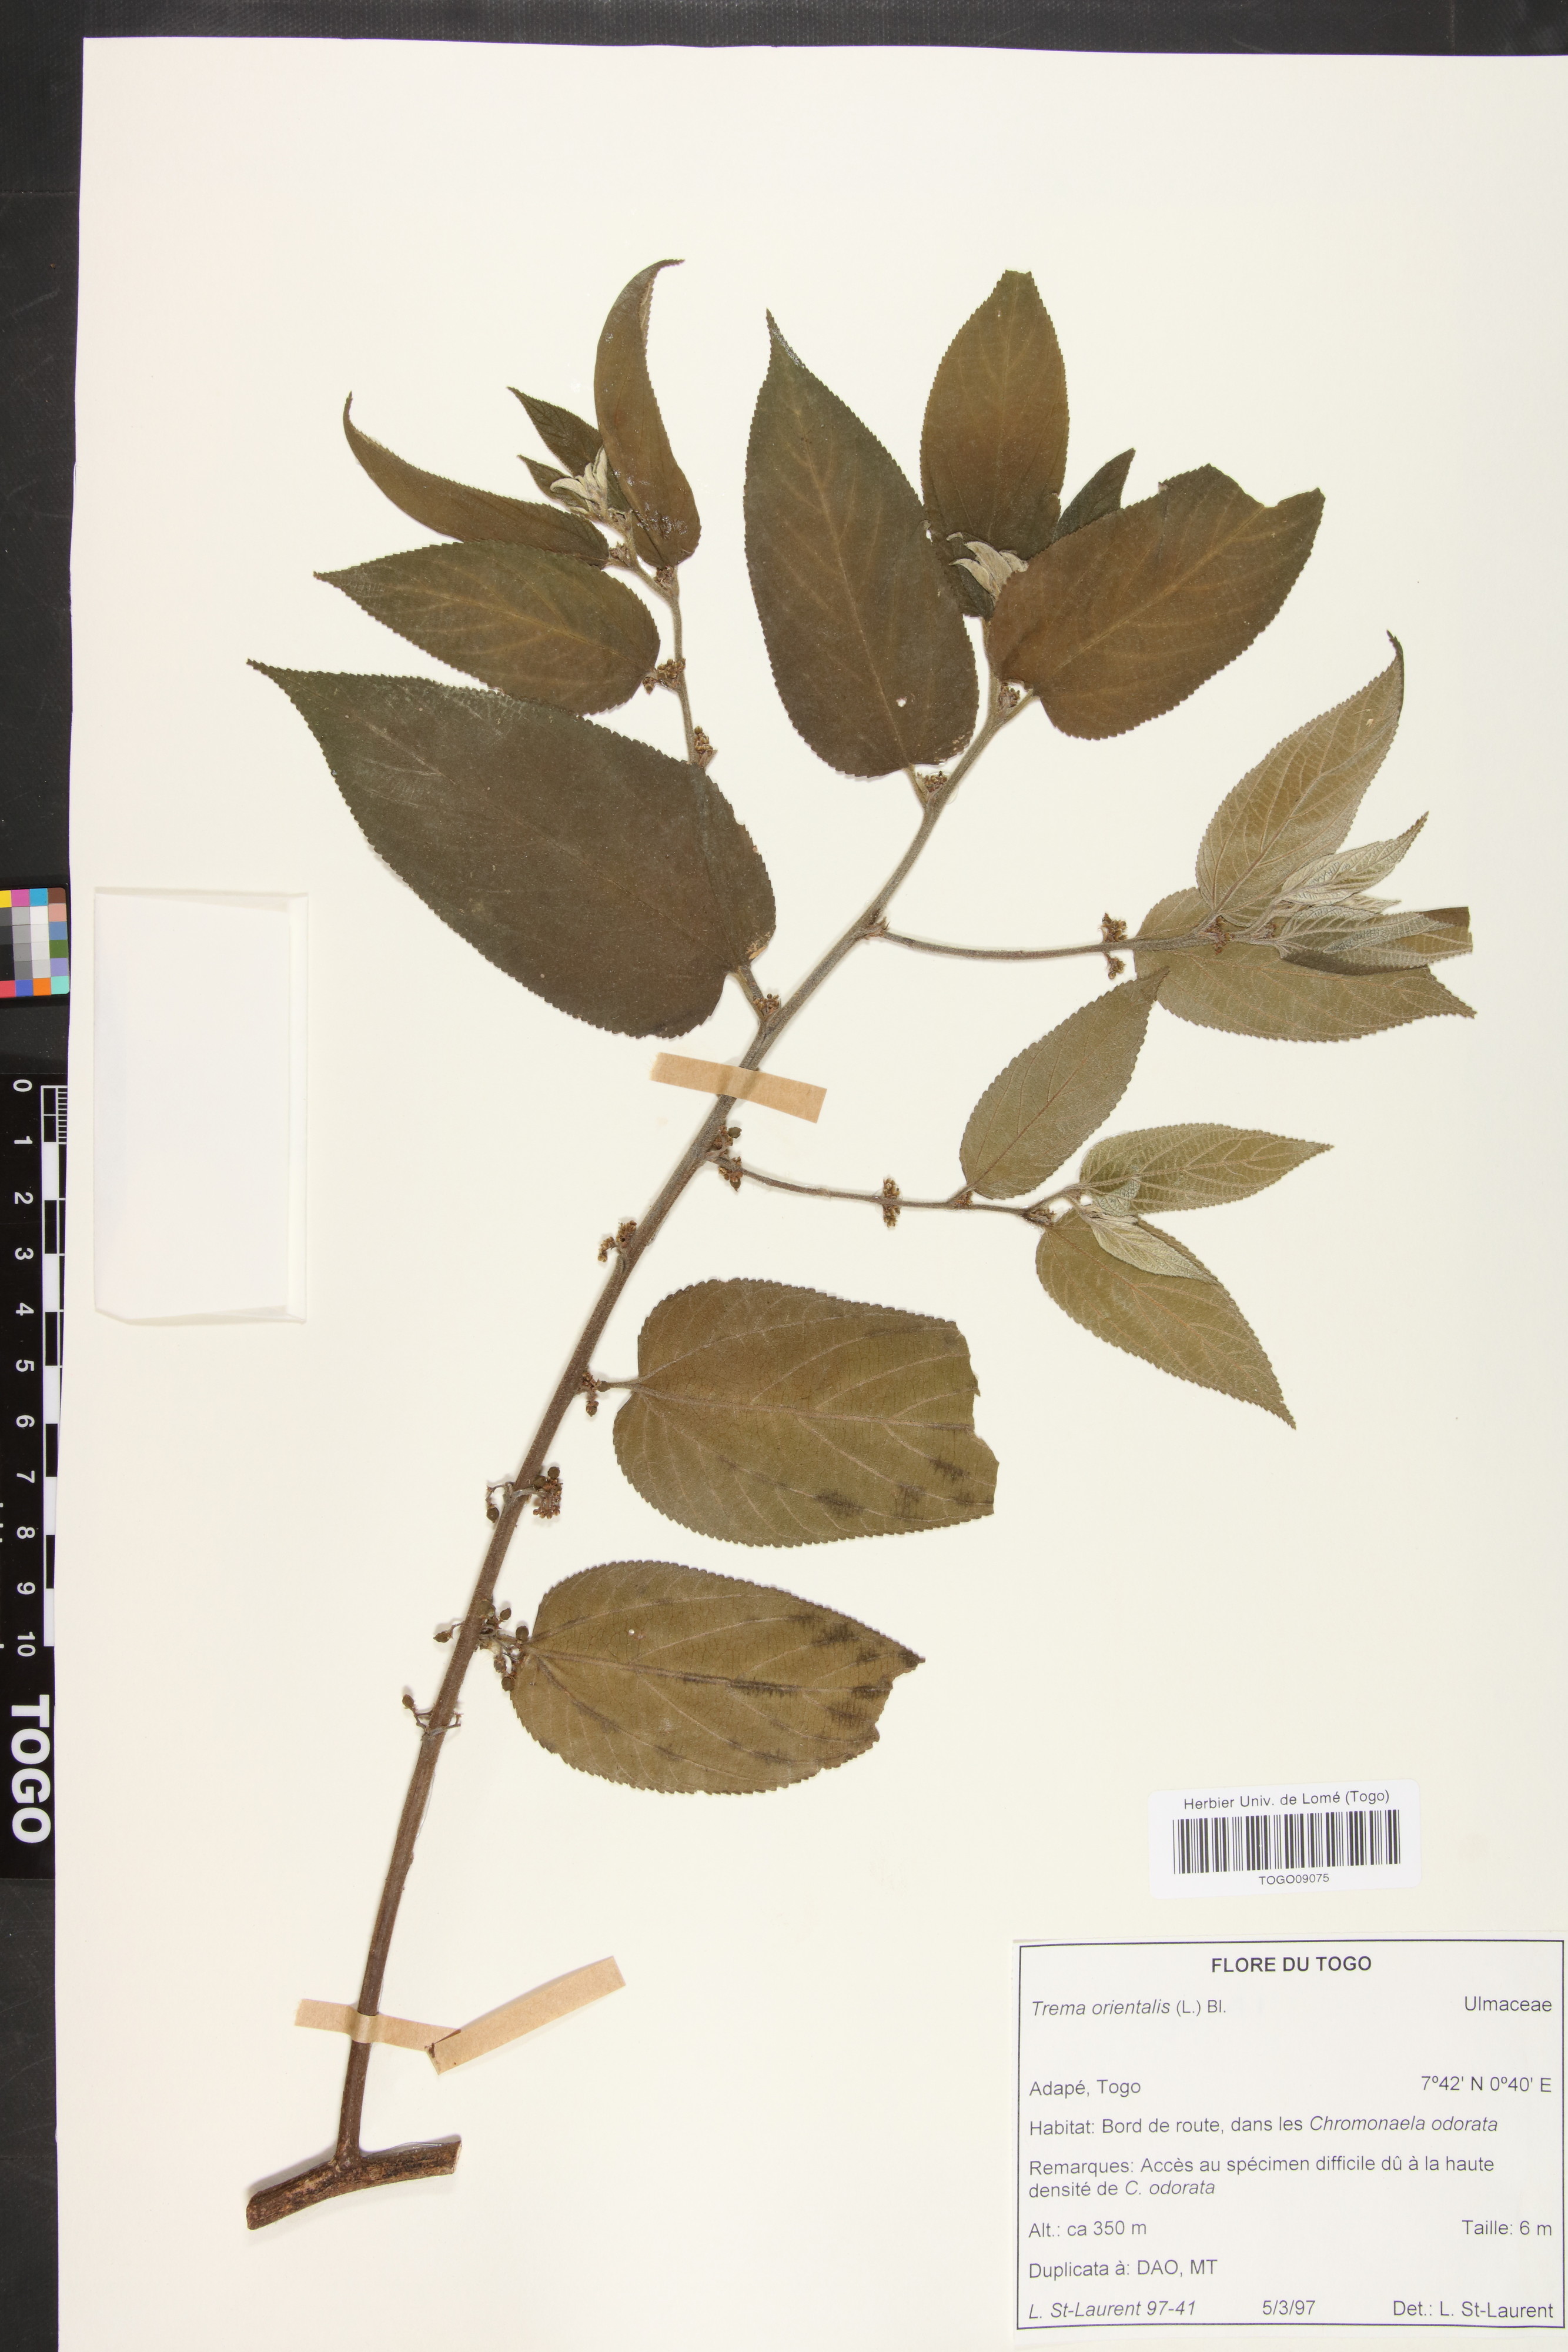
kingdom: Plantae
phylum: Tracheophyta
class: Magnoliopsida
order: Rosales
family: Cannabaceae
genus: Trema
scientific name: Trema orientale
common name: Indian charcoal tree
